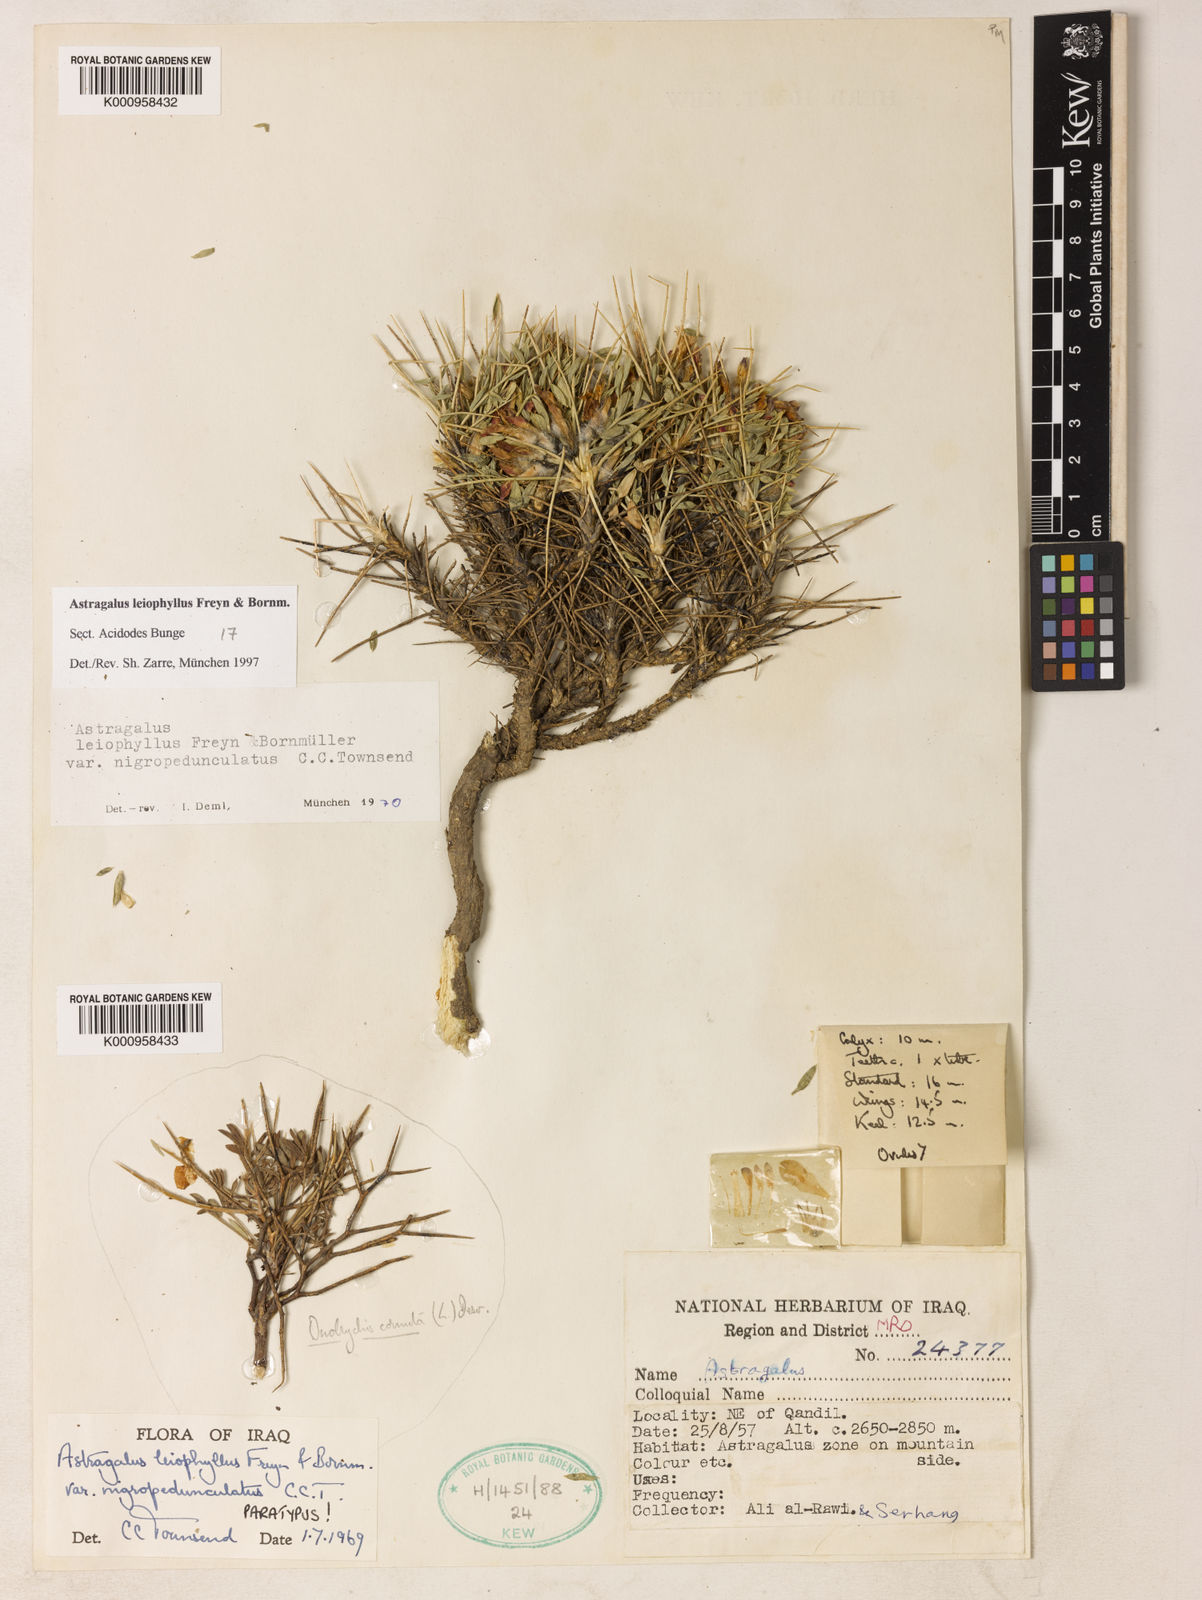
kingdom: Plantae
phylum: Tracheophyta
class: Magnoliopsida
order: Fabales
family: Fabaceae
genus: Astragalus
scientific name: Astragalus leiophyllus
